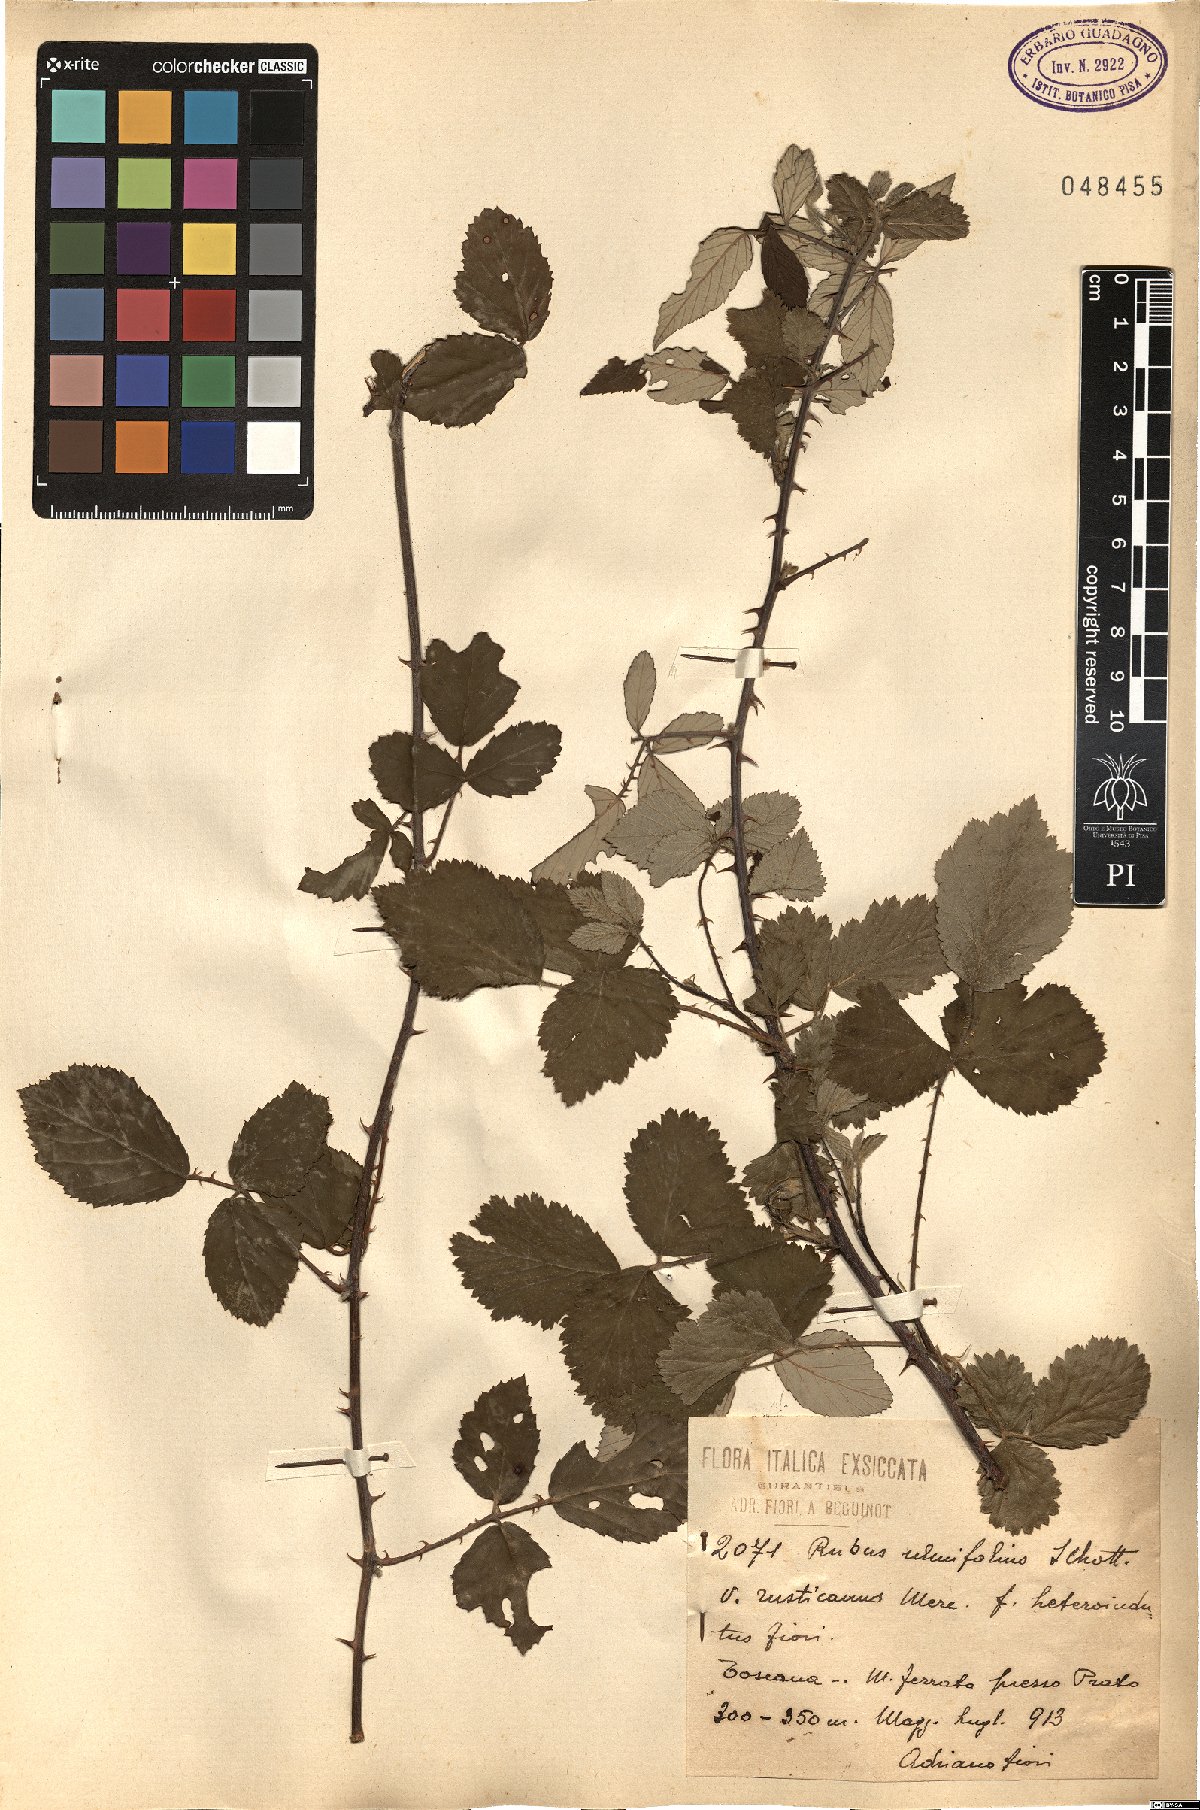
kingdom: Plantae
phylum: Tracheophyta
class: Magnoliopsida
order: Rosales
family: Rosaceae
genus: Rubus
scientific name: Rubus ulmifolius
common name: Elmleaf blackberry
